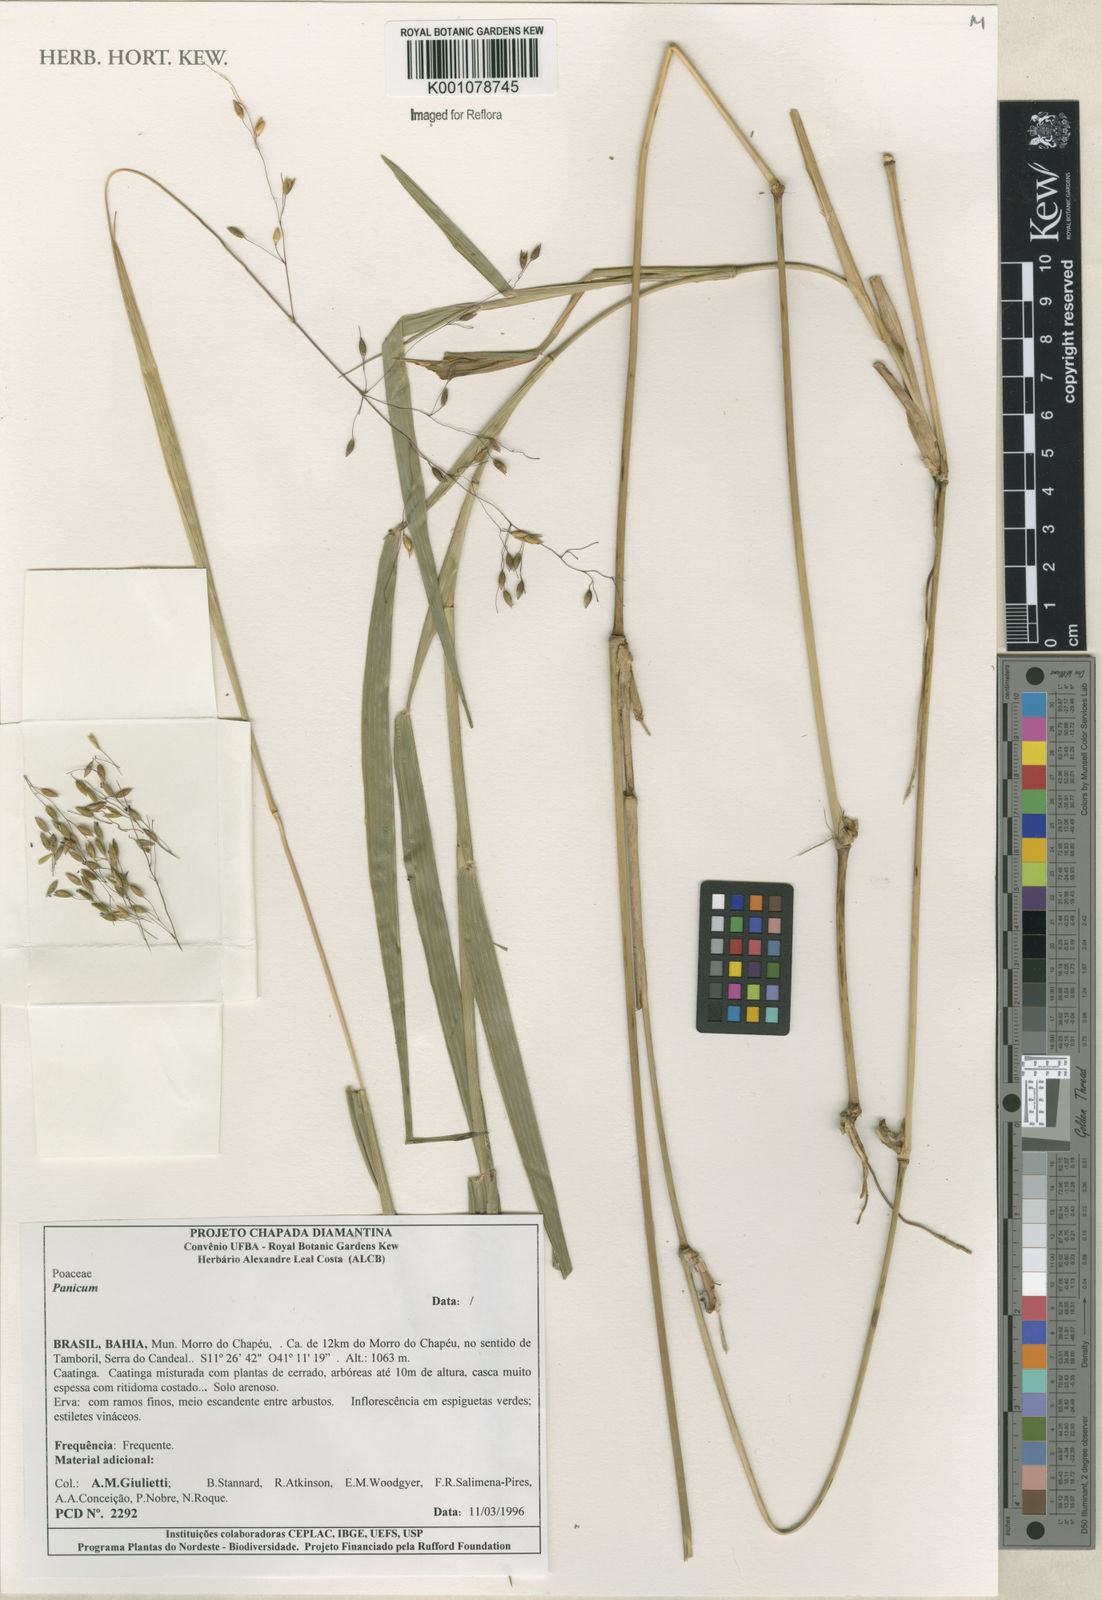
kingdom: Plantae
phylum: Tracheophyta
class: Liliopsida
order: Poales
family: Poaceae
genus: Panicum
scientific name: Panicum
